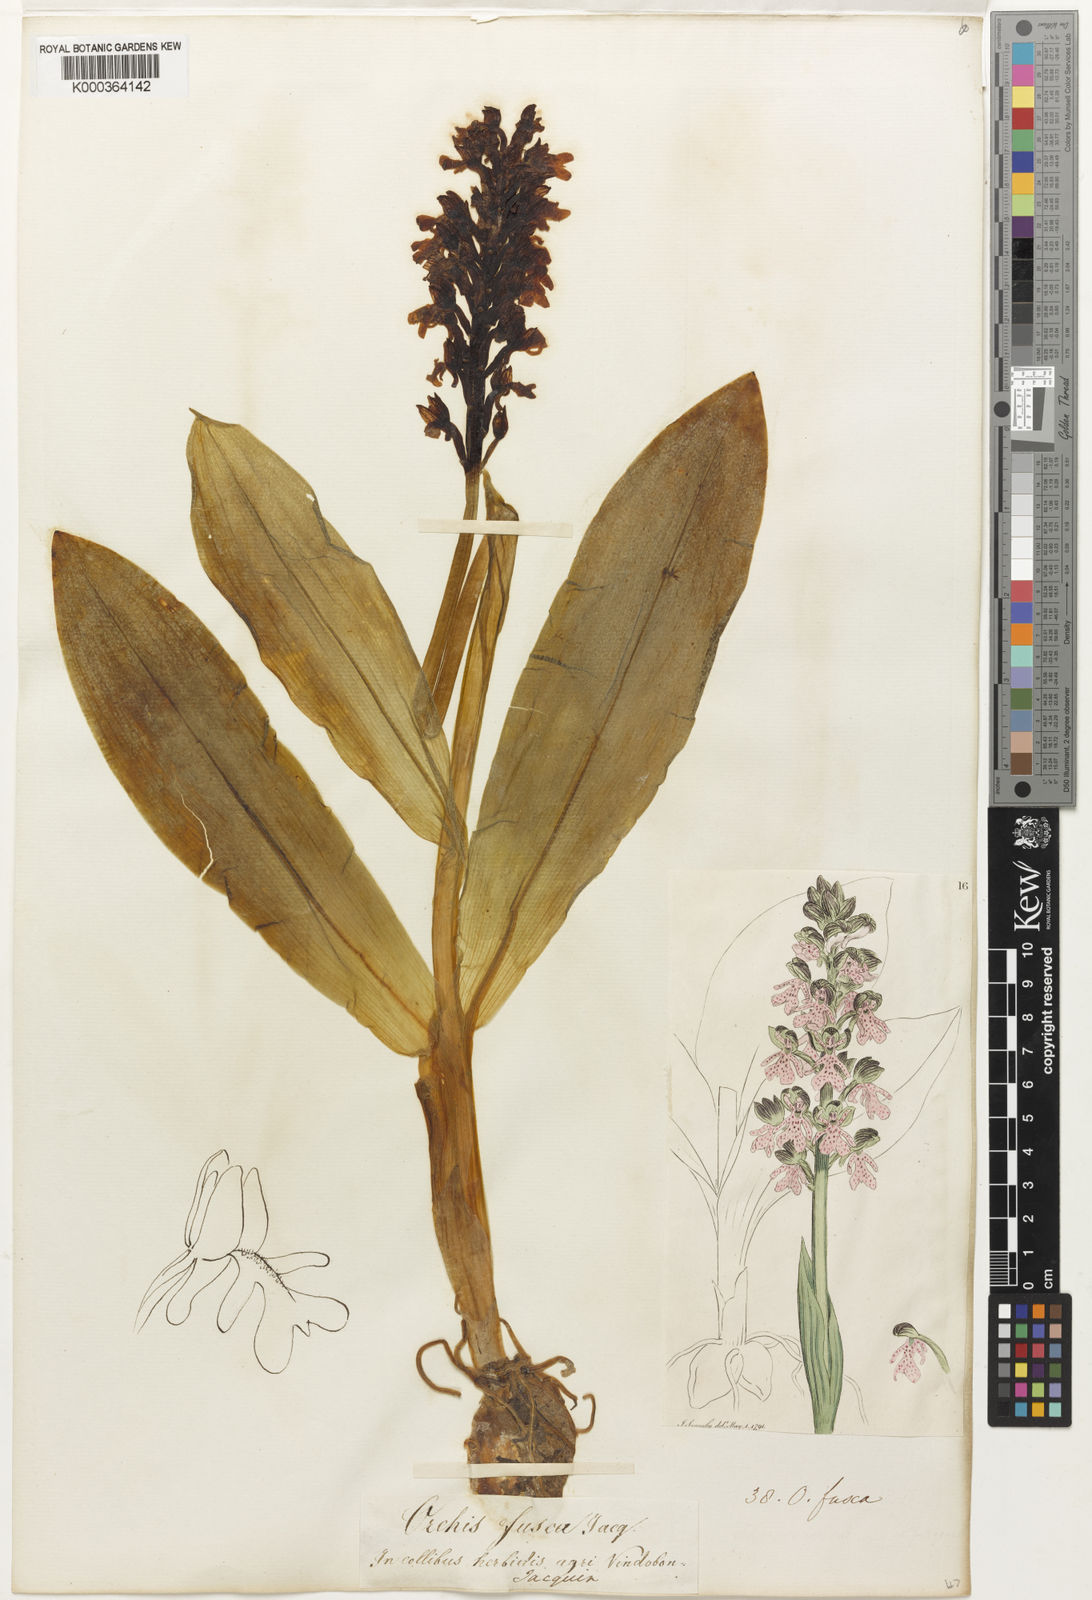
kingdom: Plantae
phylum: Tracheophyta
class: Liliopsida
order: Asparagales
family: Orchidaceae
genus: Orchis
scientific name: Orchis purpurea
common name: Lady orchid
